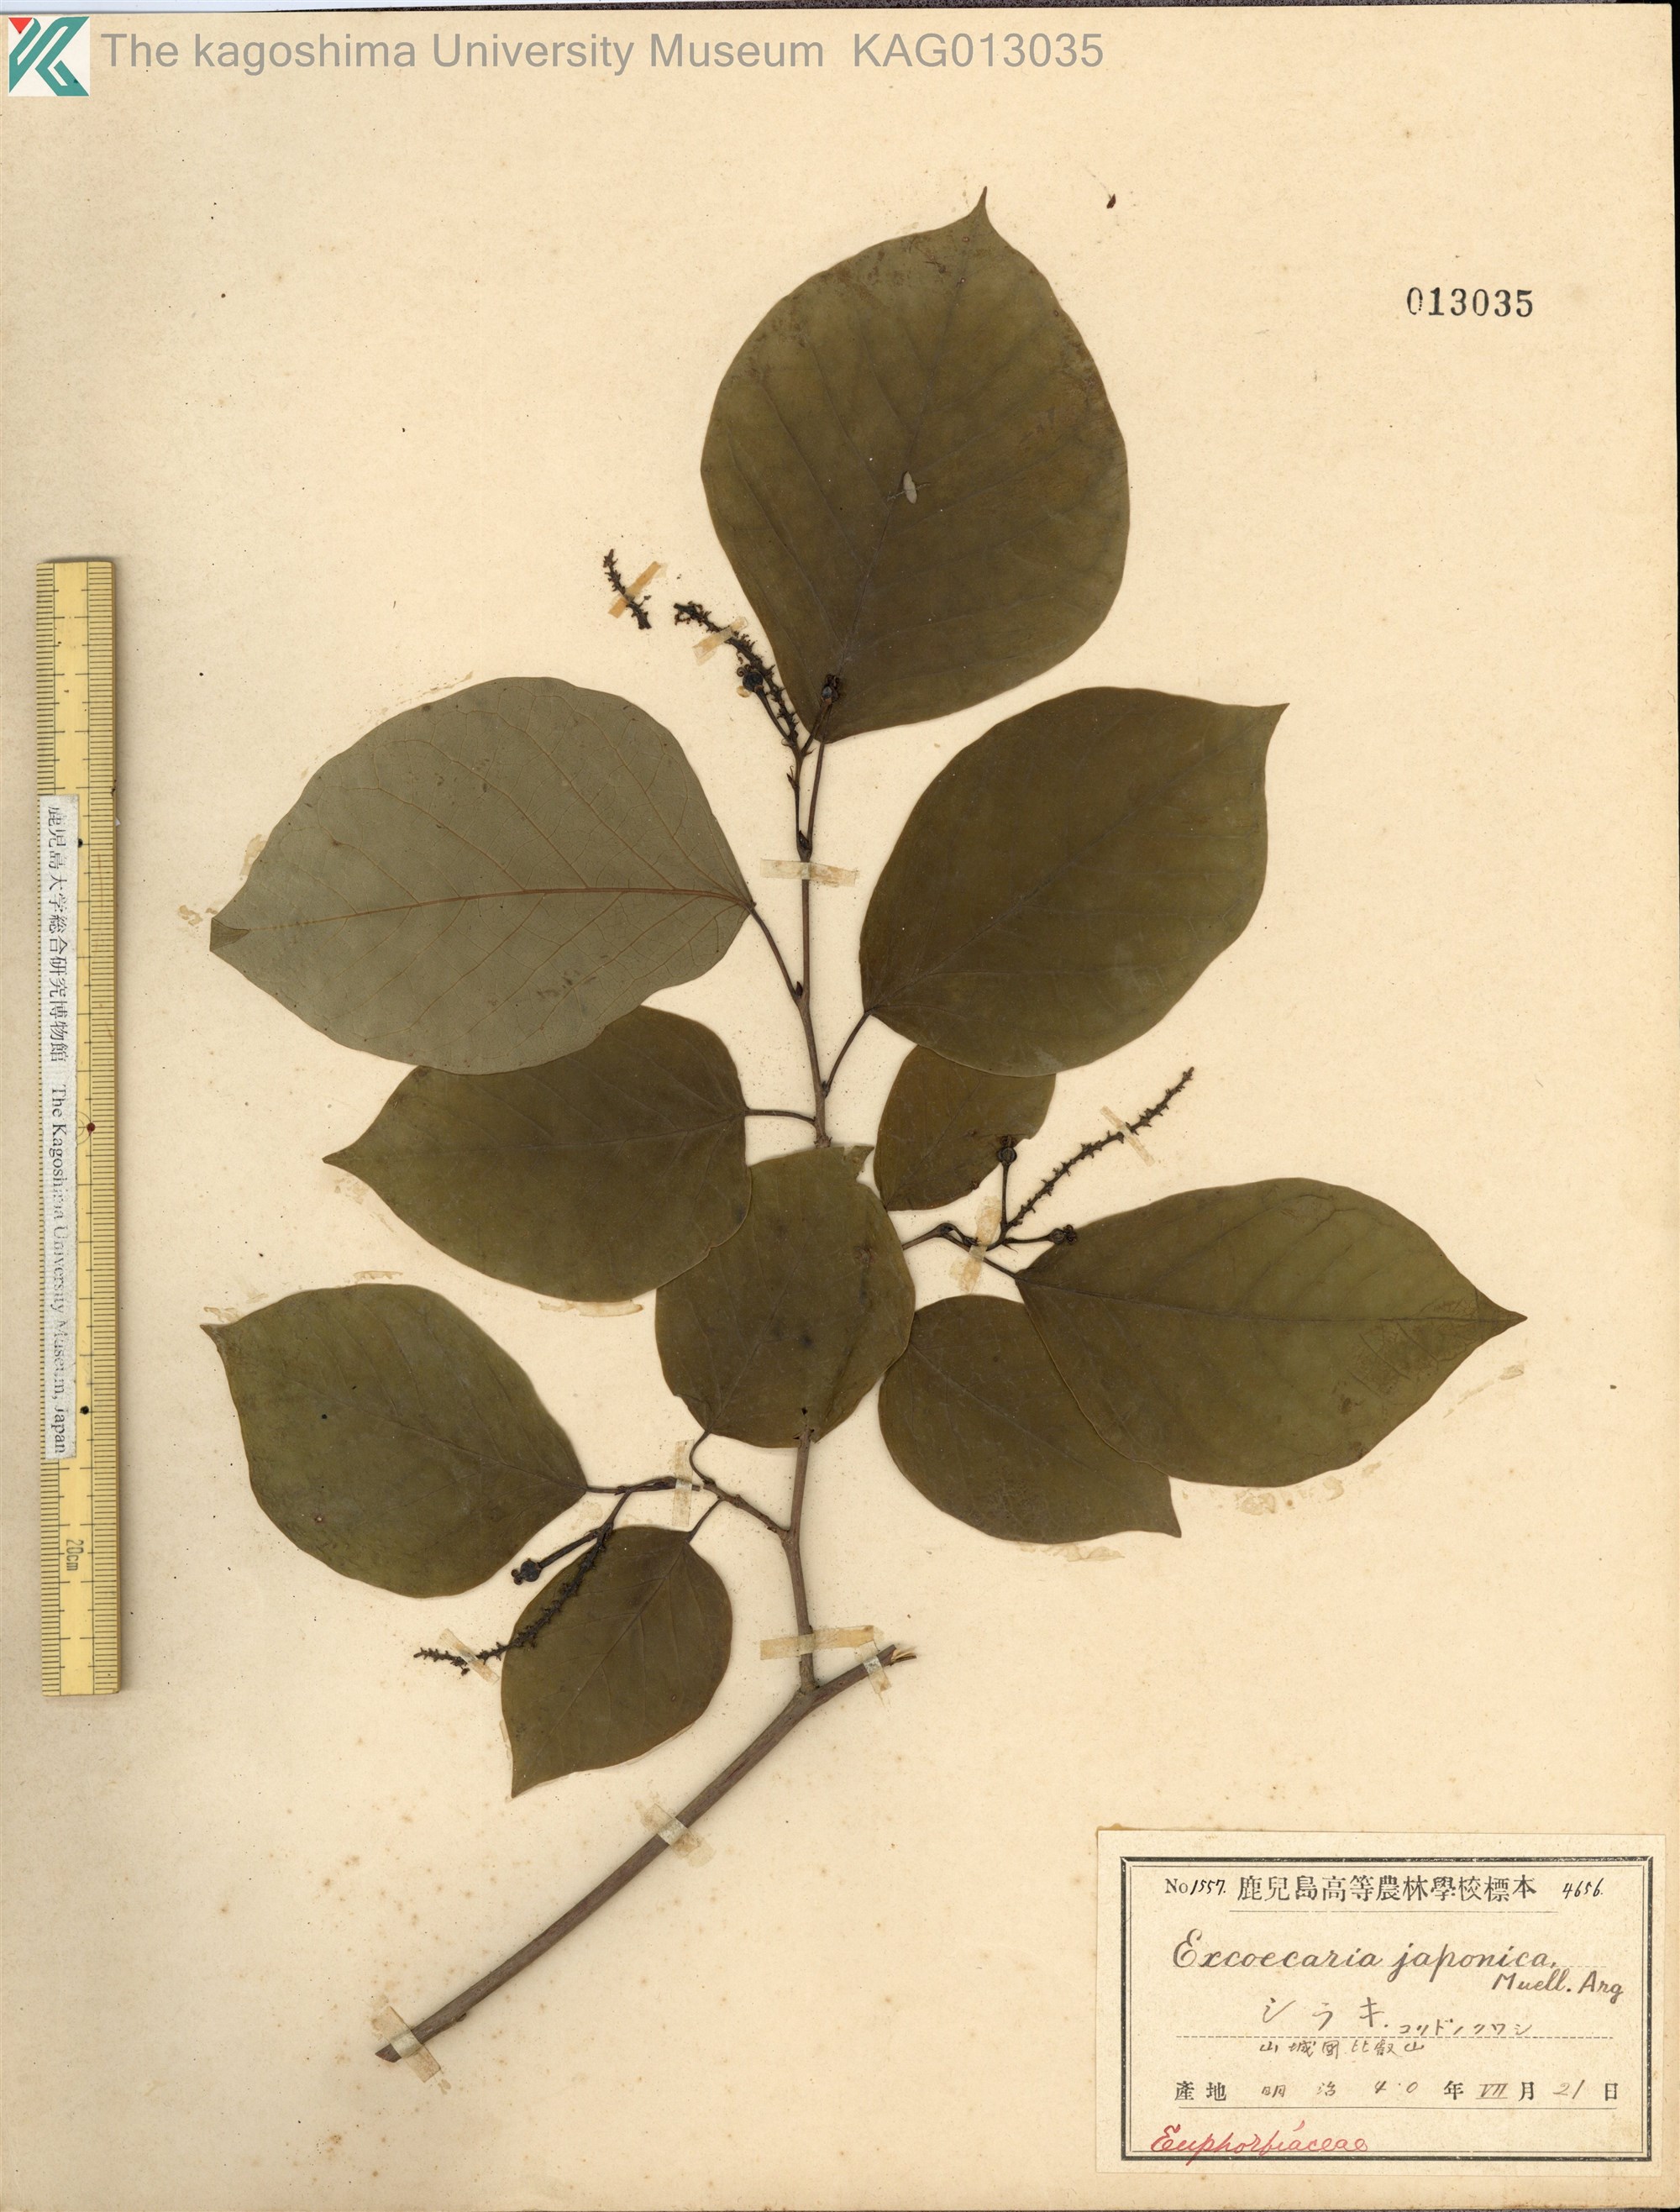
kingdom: Plantae
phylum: Tracheophyta
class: Magnoliopsida
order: Malpighiales
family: Euphorbiaceae
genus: Neoshirakia
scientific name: Neoshirakia japonica
